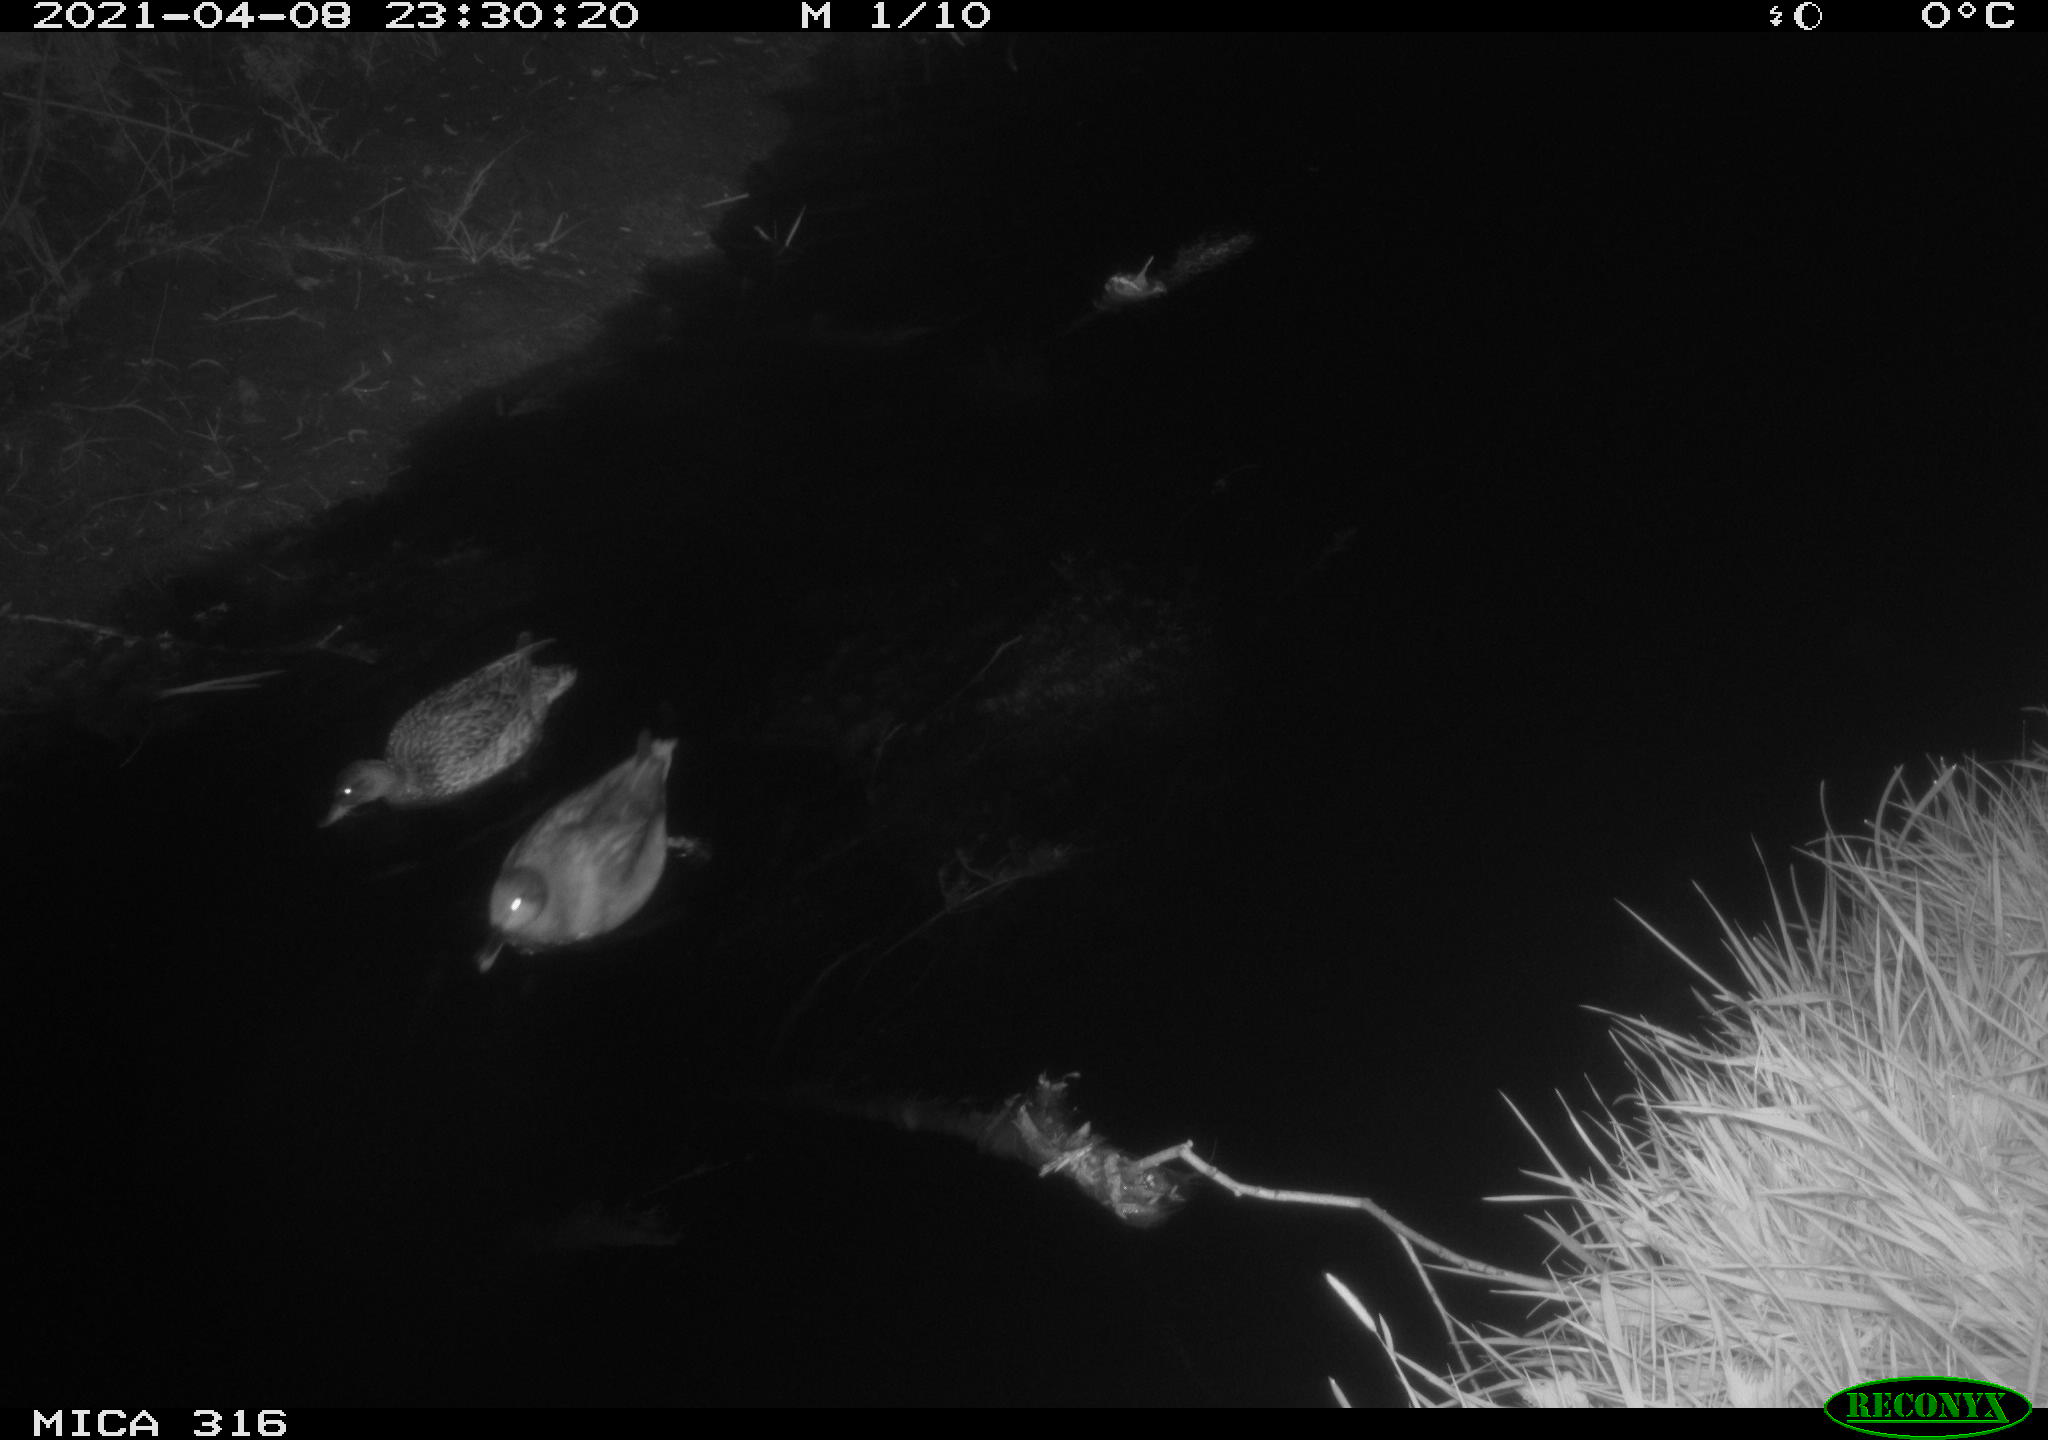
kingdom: Animalia
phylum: Chordata
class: Aves
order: Anseriformes
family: Anatidae
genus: Mareca
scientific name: Mareca strepera
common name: Gadwall
